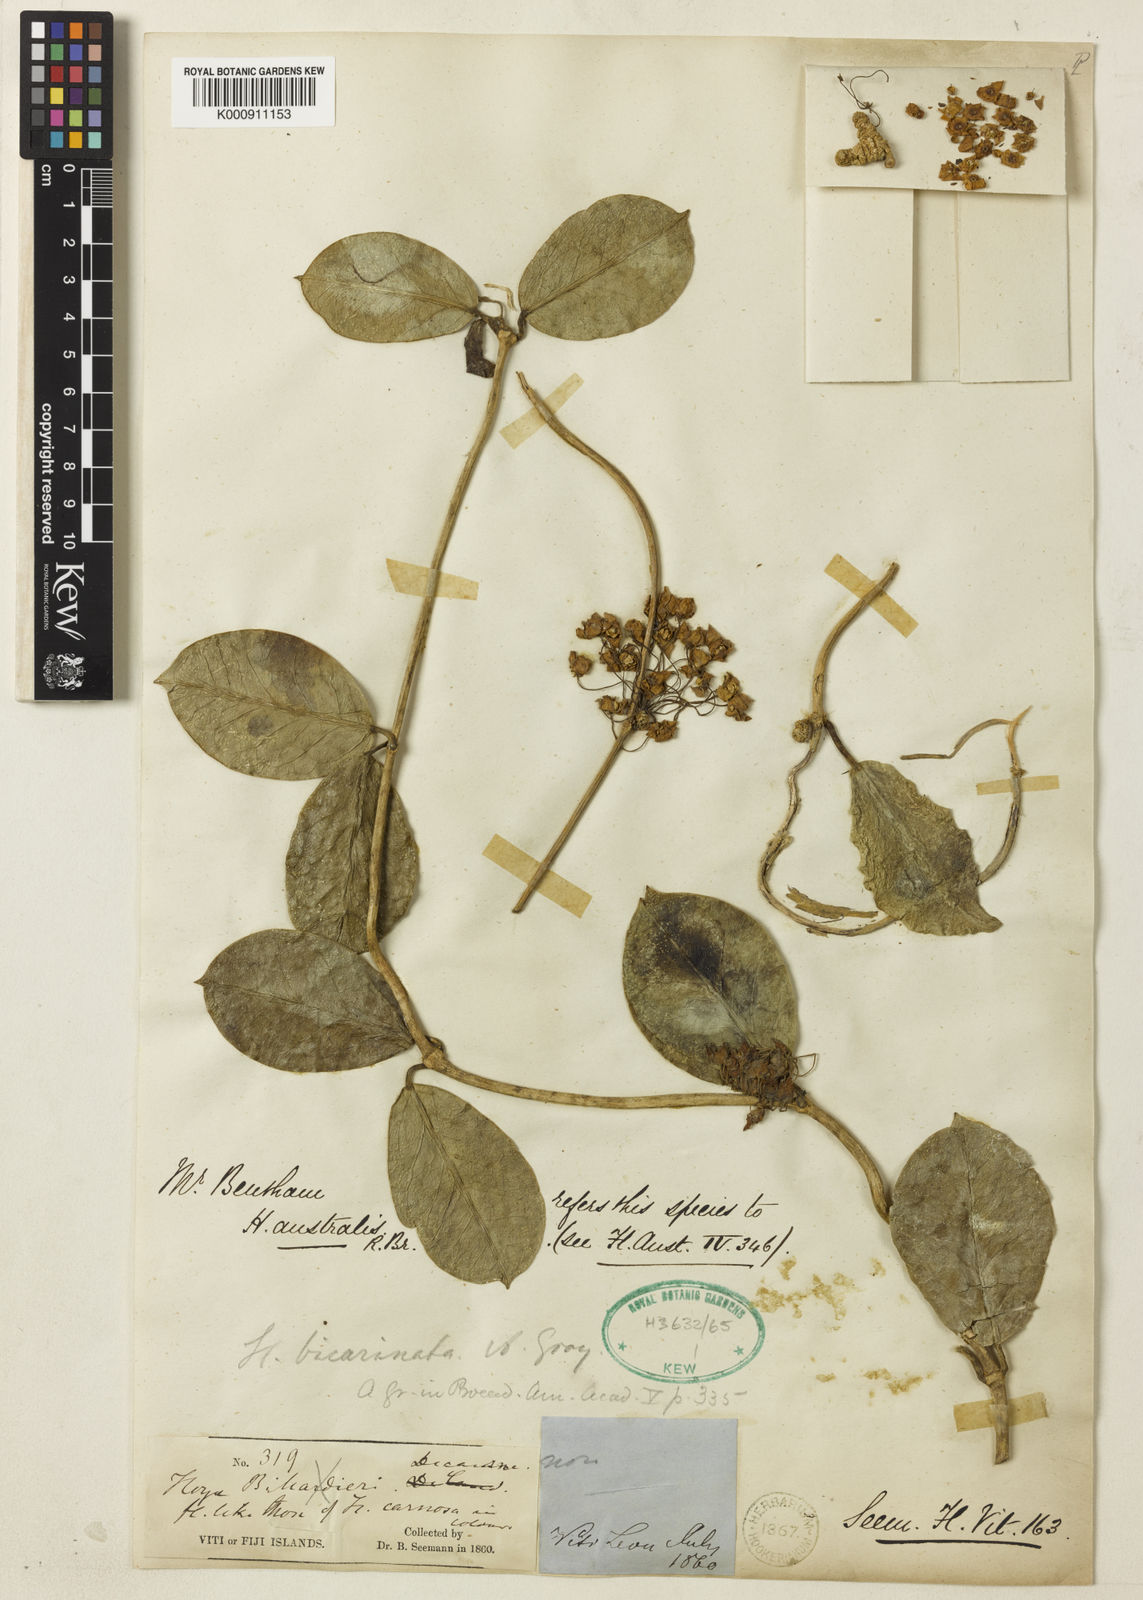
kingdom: Plantae
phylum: Tracheophyta
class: Magnoliopsida
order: Gentianales
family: Apocynaceae
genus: Hoya
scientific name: Hoya australis
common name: Wax flower
